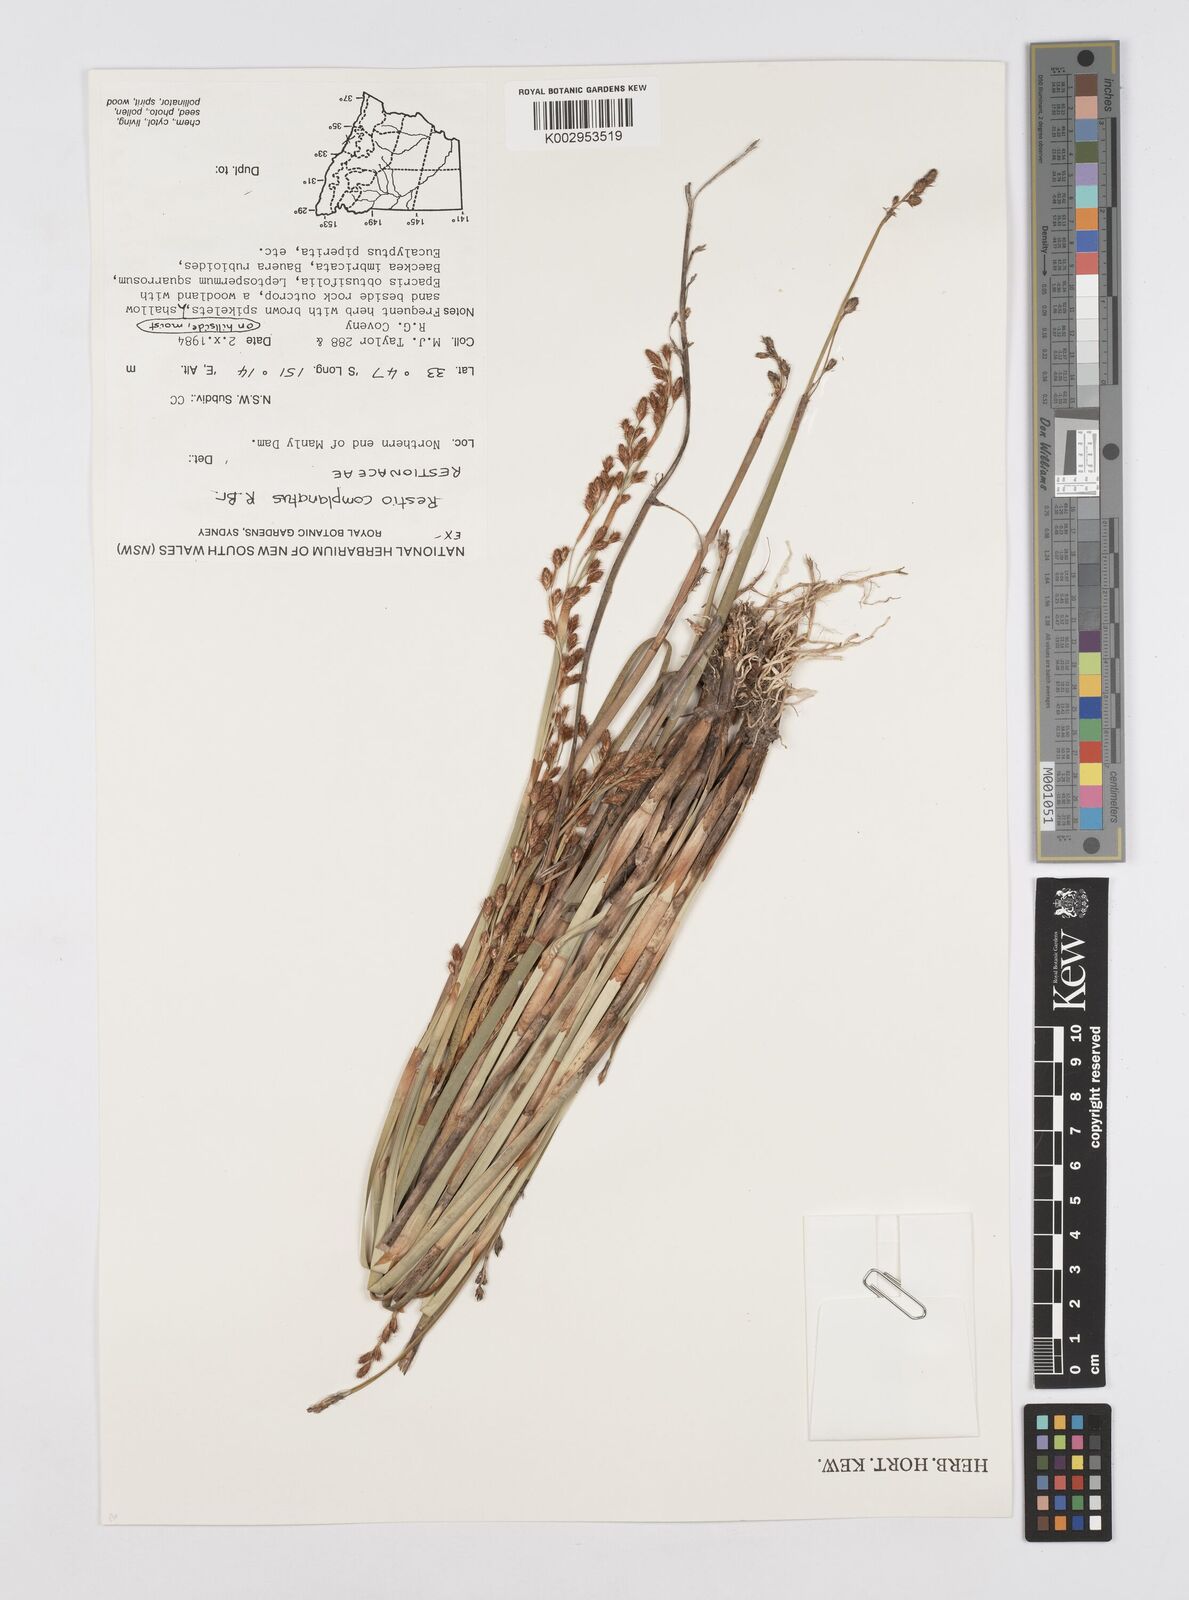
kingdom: Plantae
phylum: Tracheophyta
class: Liliopsida
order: Poales
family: Restionaceae
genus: Eurychorda
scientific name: Eurychorda complanata
